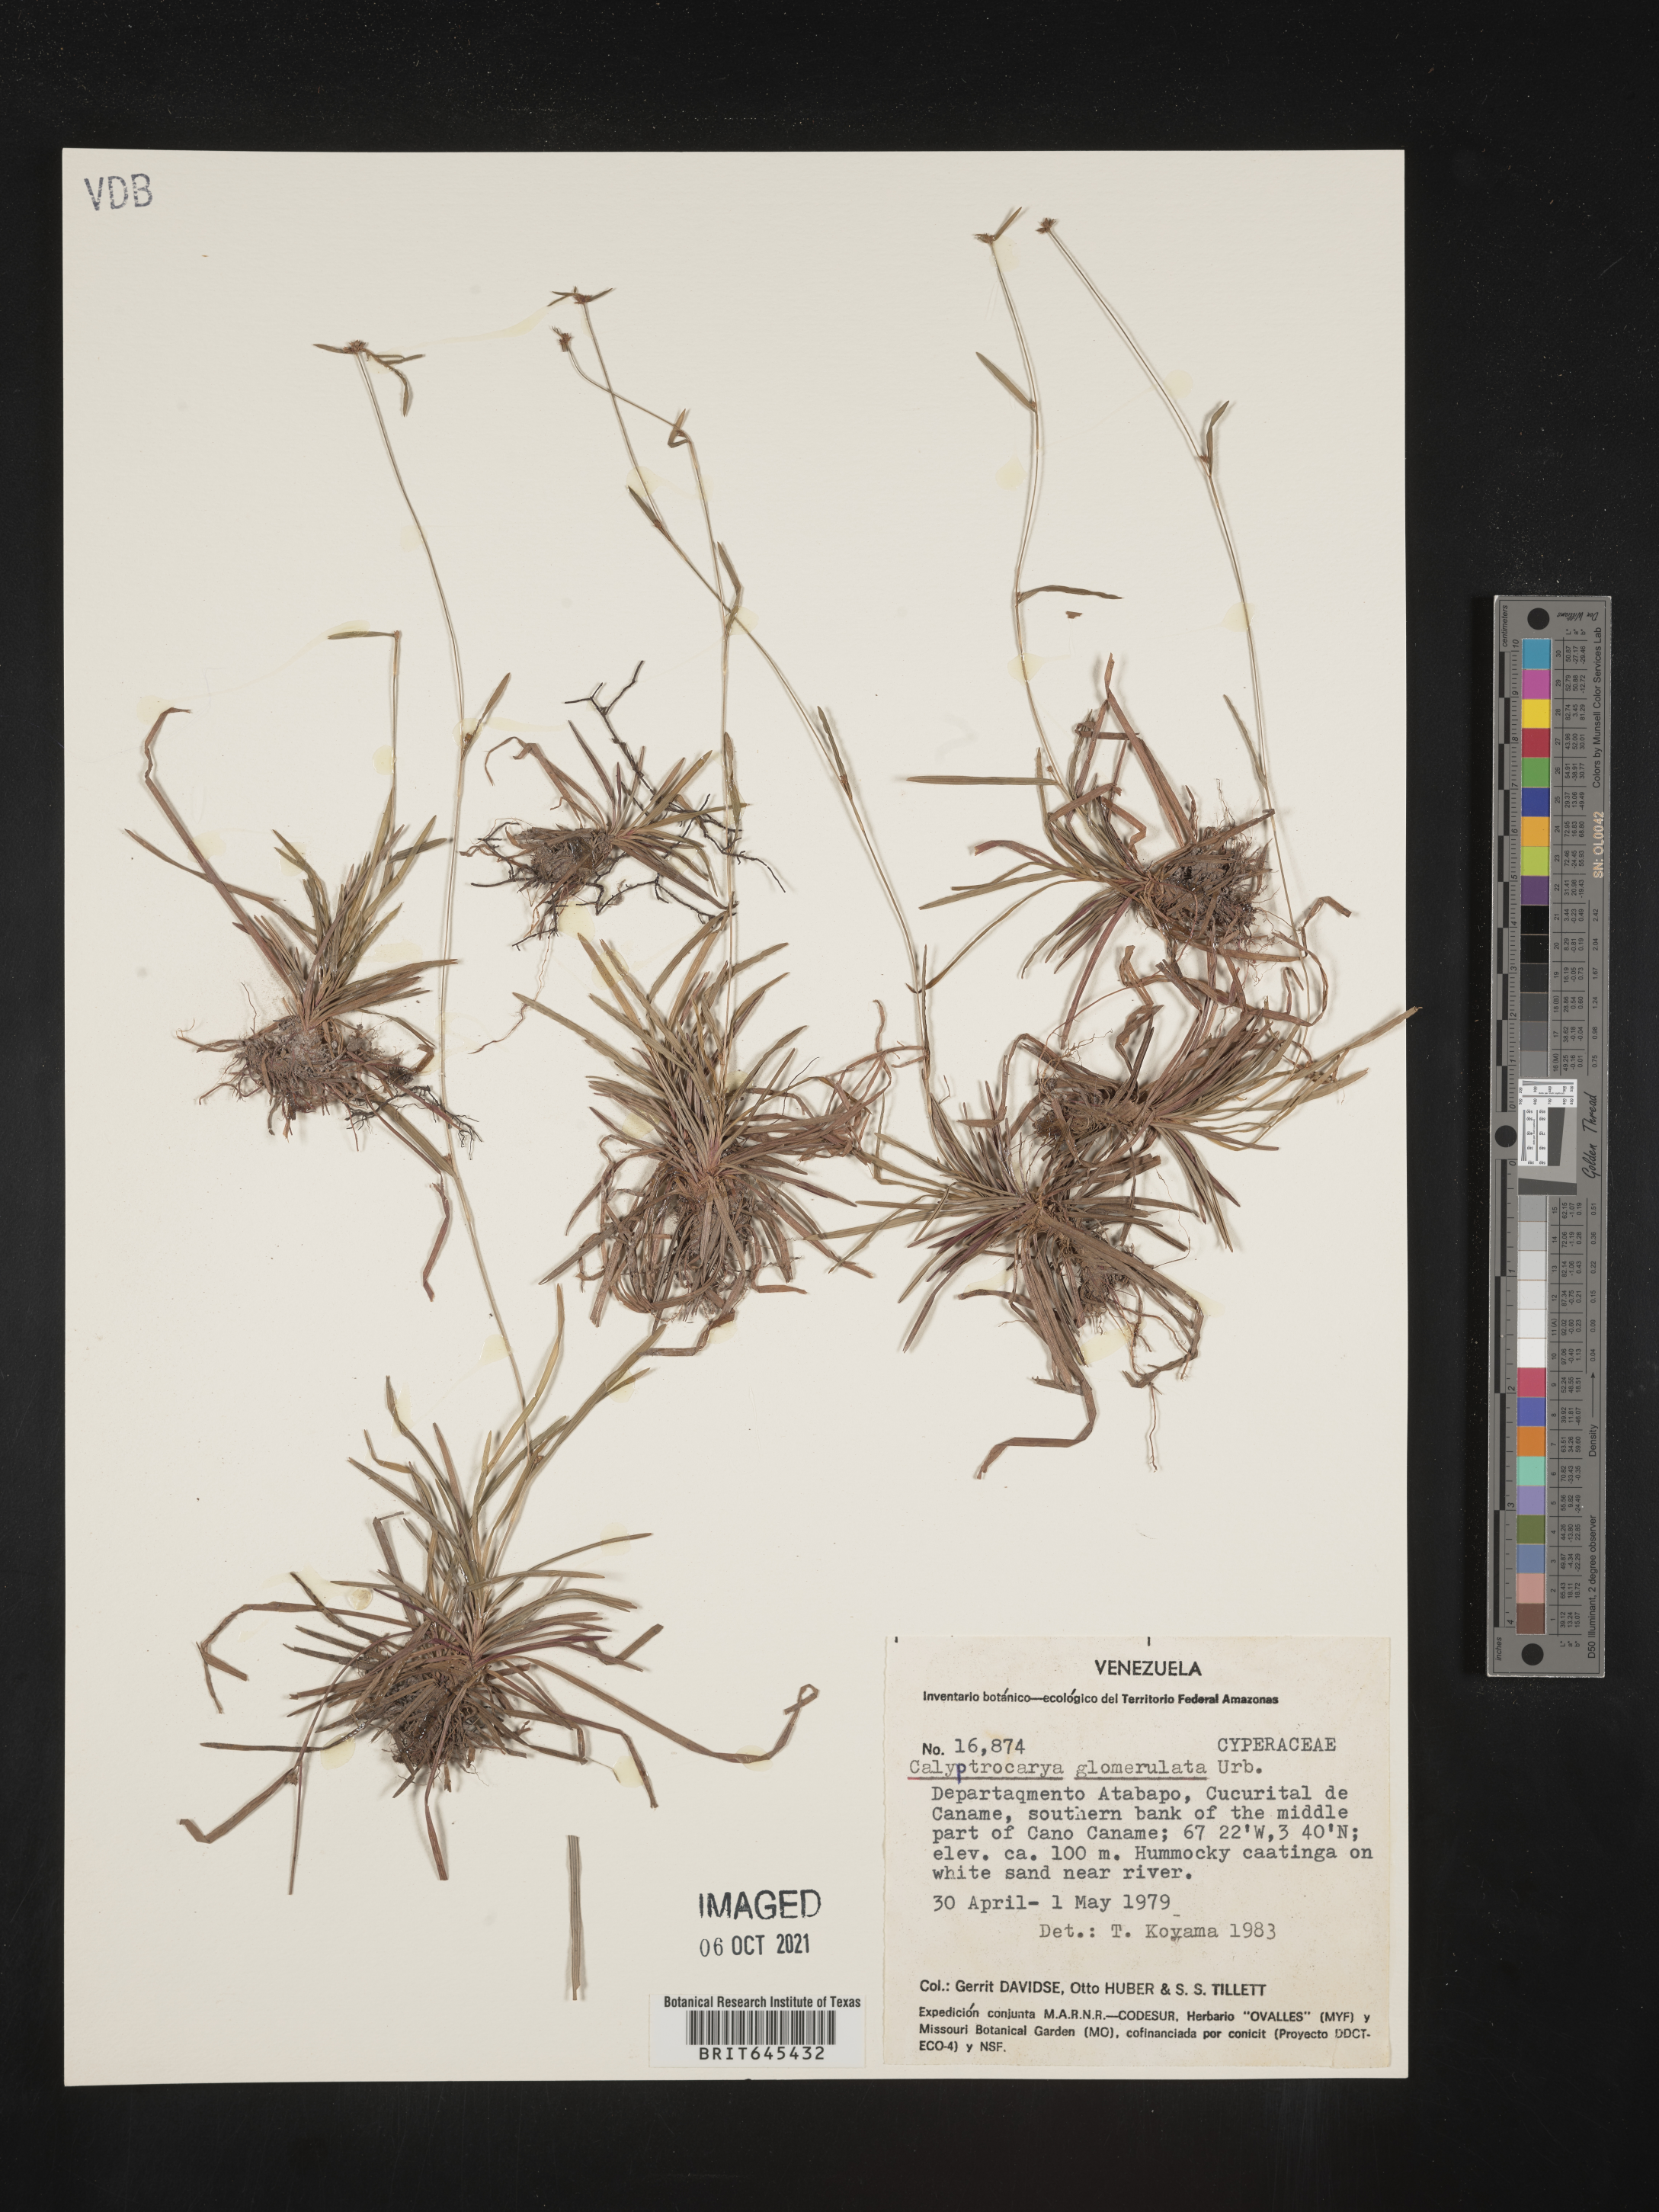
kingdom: Plantae
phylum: Tracheophyta
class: Liliopsida
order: Poales
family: Cyperaceae
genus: Calyptrocarya
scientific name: Calyptrocarya glomerulata
